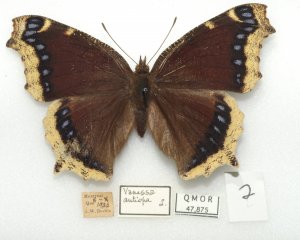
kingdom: Animalia
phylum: Arthropoda
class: Insecta
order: Lepidoptera
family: Nymphalidae
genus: Nymphalis
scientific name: Nymphalis antiopa
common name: Mourning Cloak
